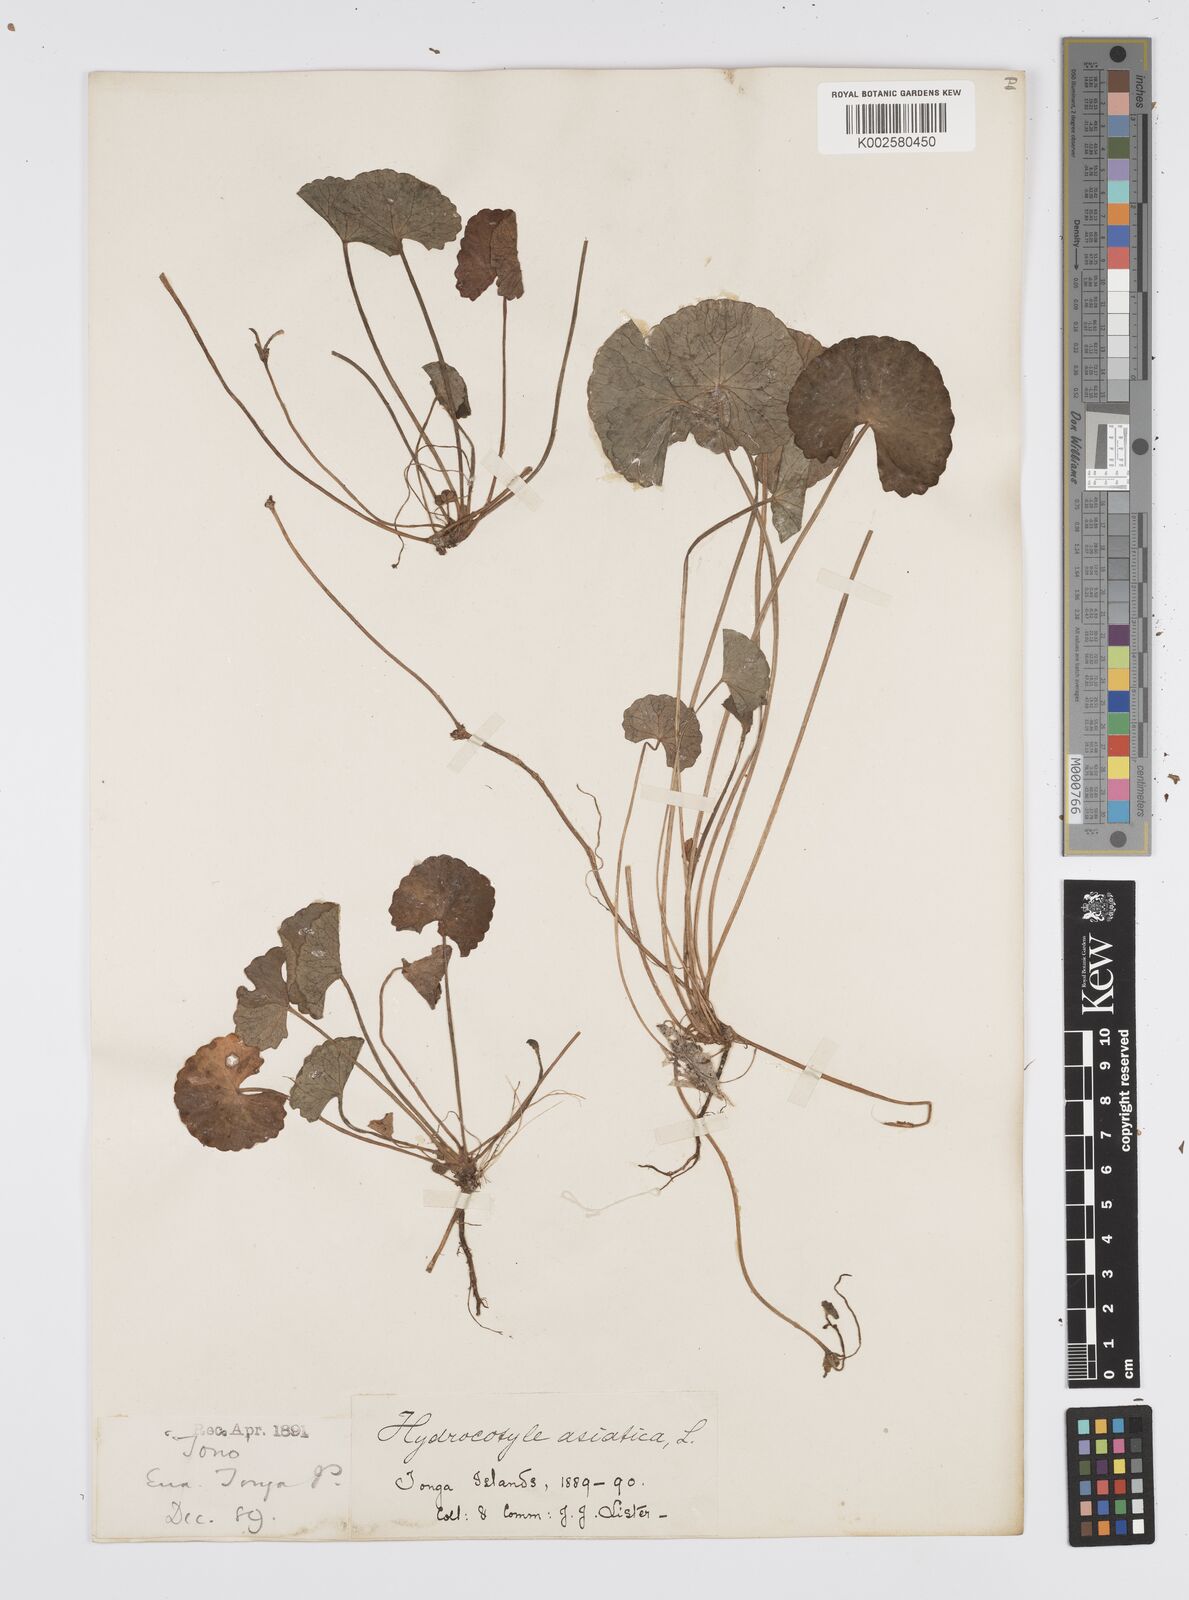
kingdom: Plantae
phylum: Tracheophyta
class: Magnoliopsida
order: Apiales
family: Apiaceae
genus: Centella
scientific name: Centella asiatica
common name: Spadeleaf
